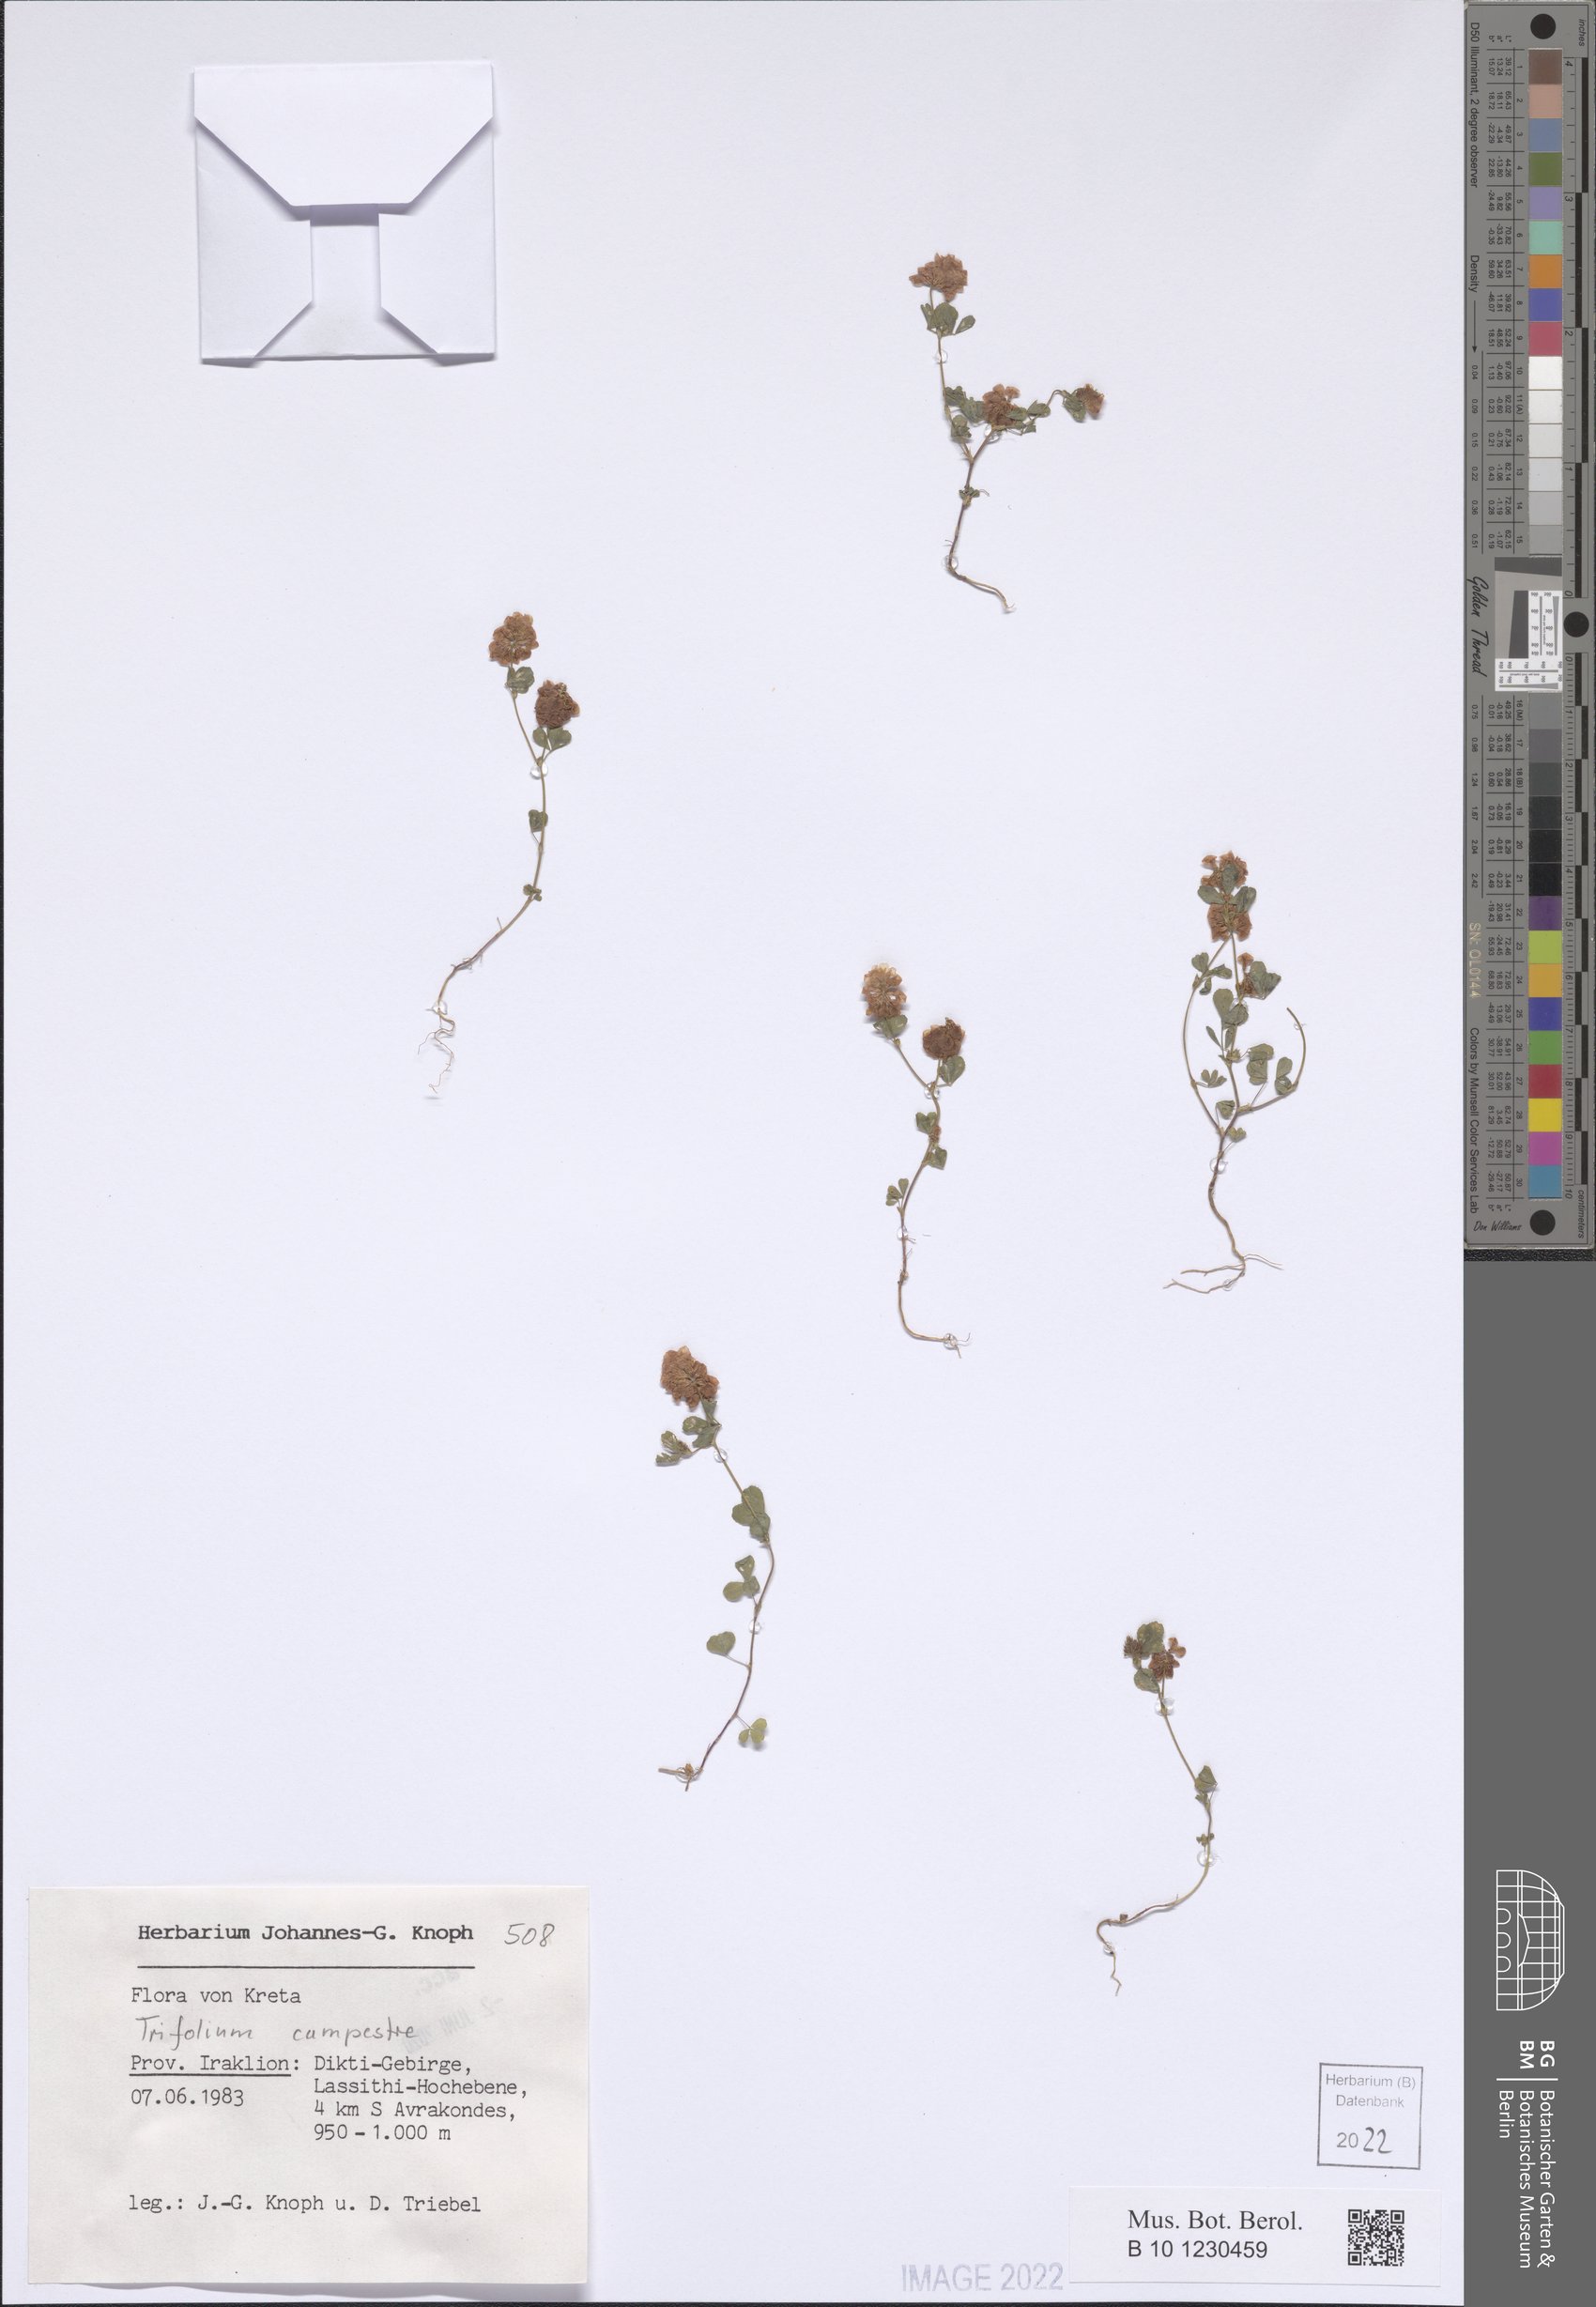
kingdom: Plantae
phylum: Tracheophyta
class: Magnoliopsida
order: Fabales
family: Fabaceae
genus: Trifolium
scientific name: Trifolium campestre
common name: Field clover
